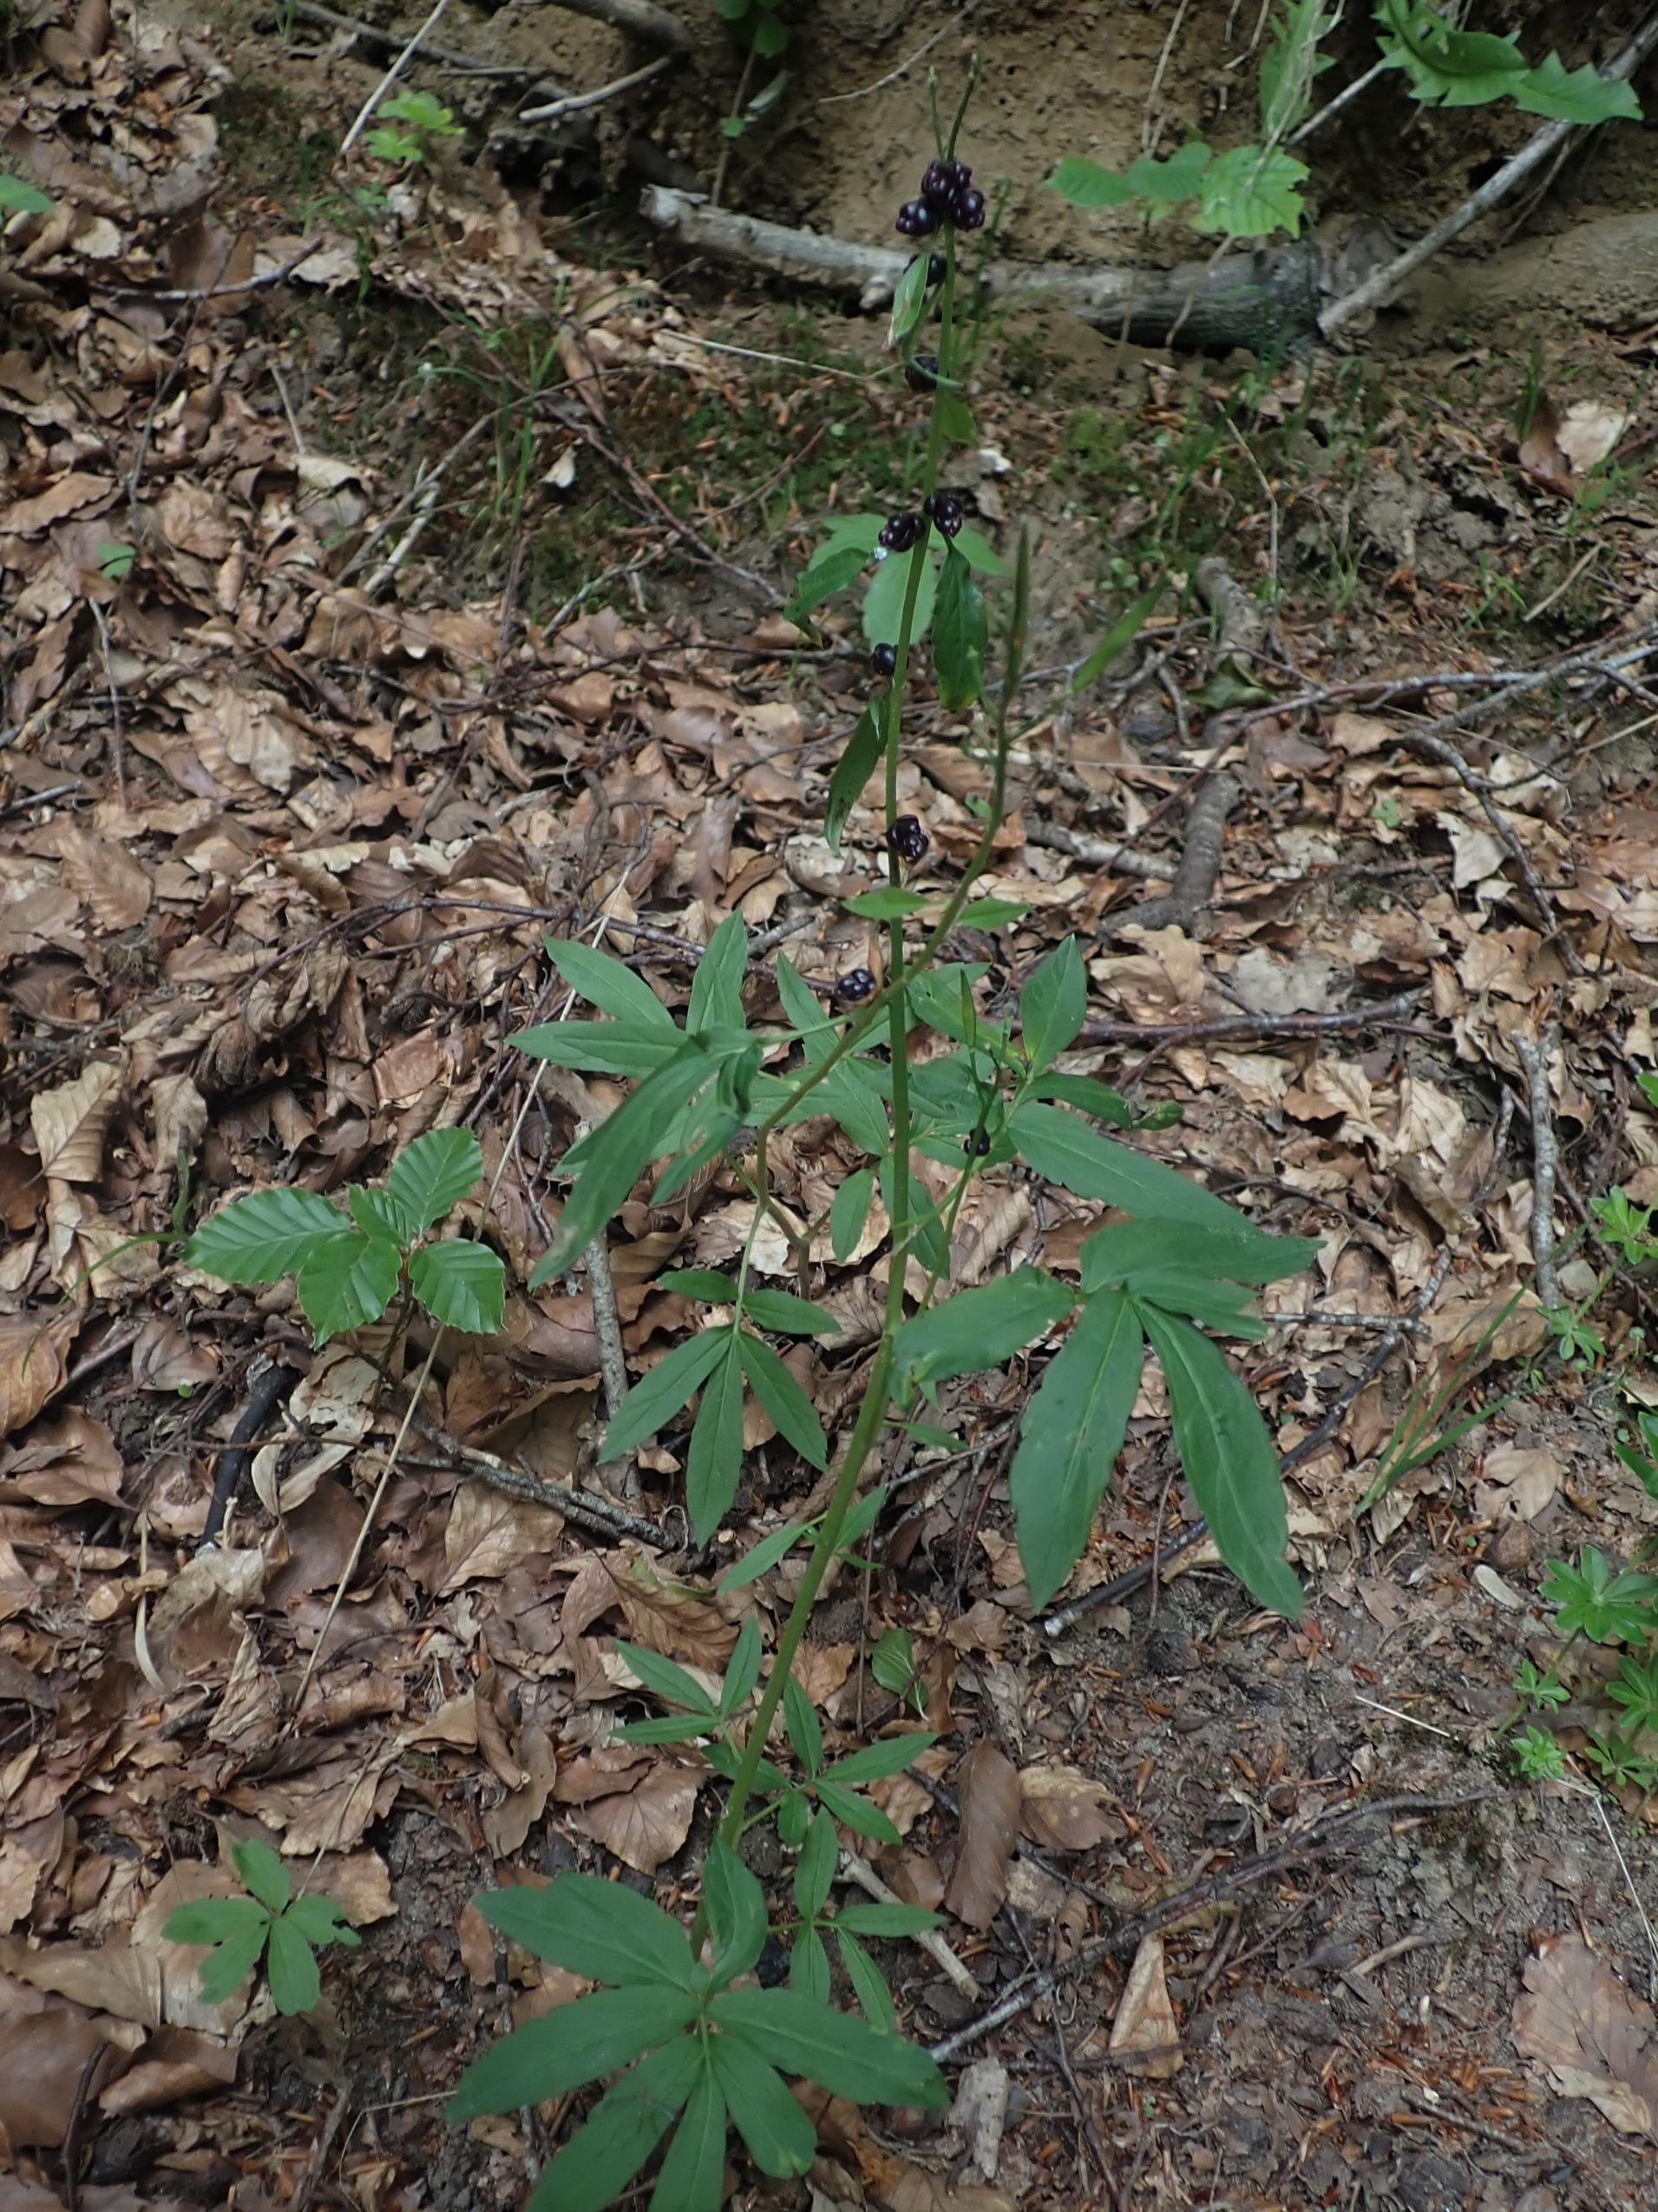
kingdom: Plantae
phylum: Tracheophyta
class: Magnoliopsida
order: Brassicales
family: Brassicaceae
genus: Cardamine
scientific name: Cardamine bulbifera
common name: Tandrod
